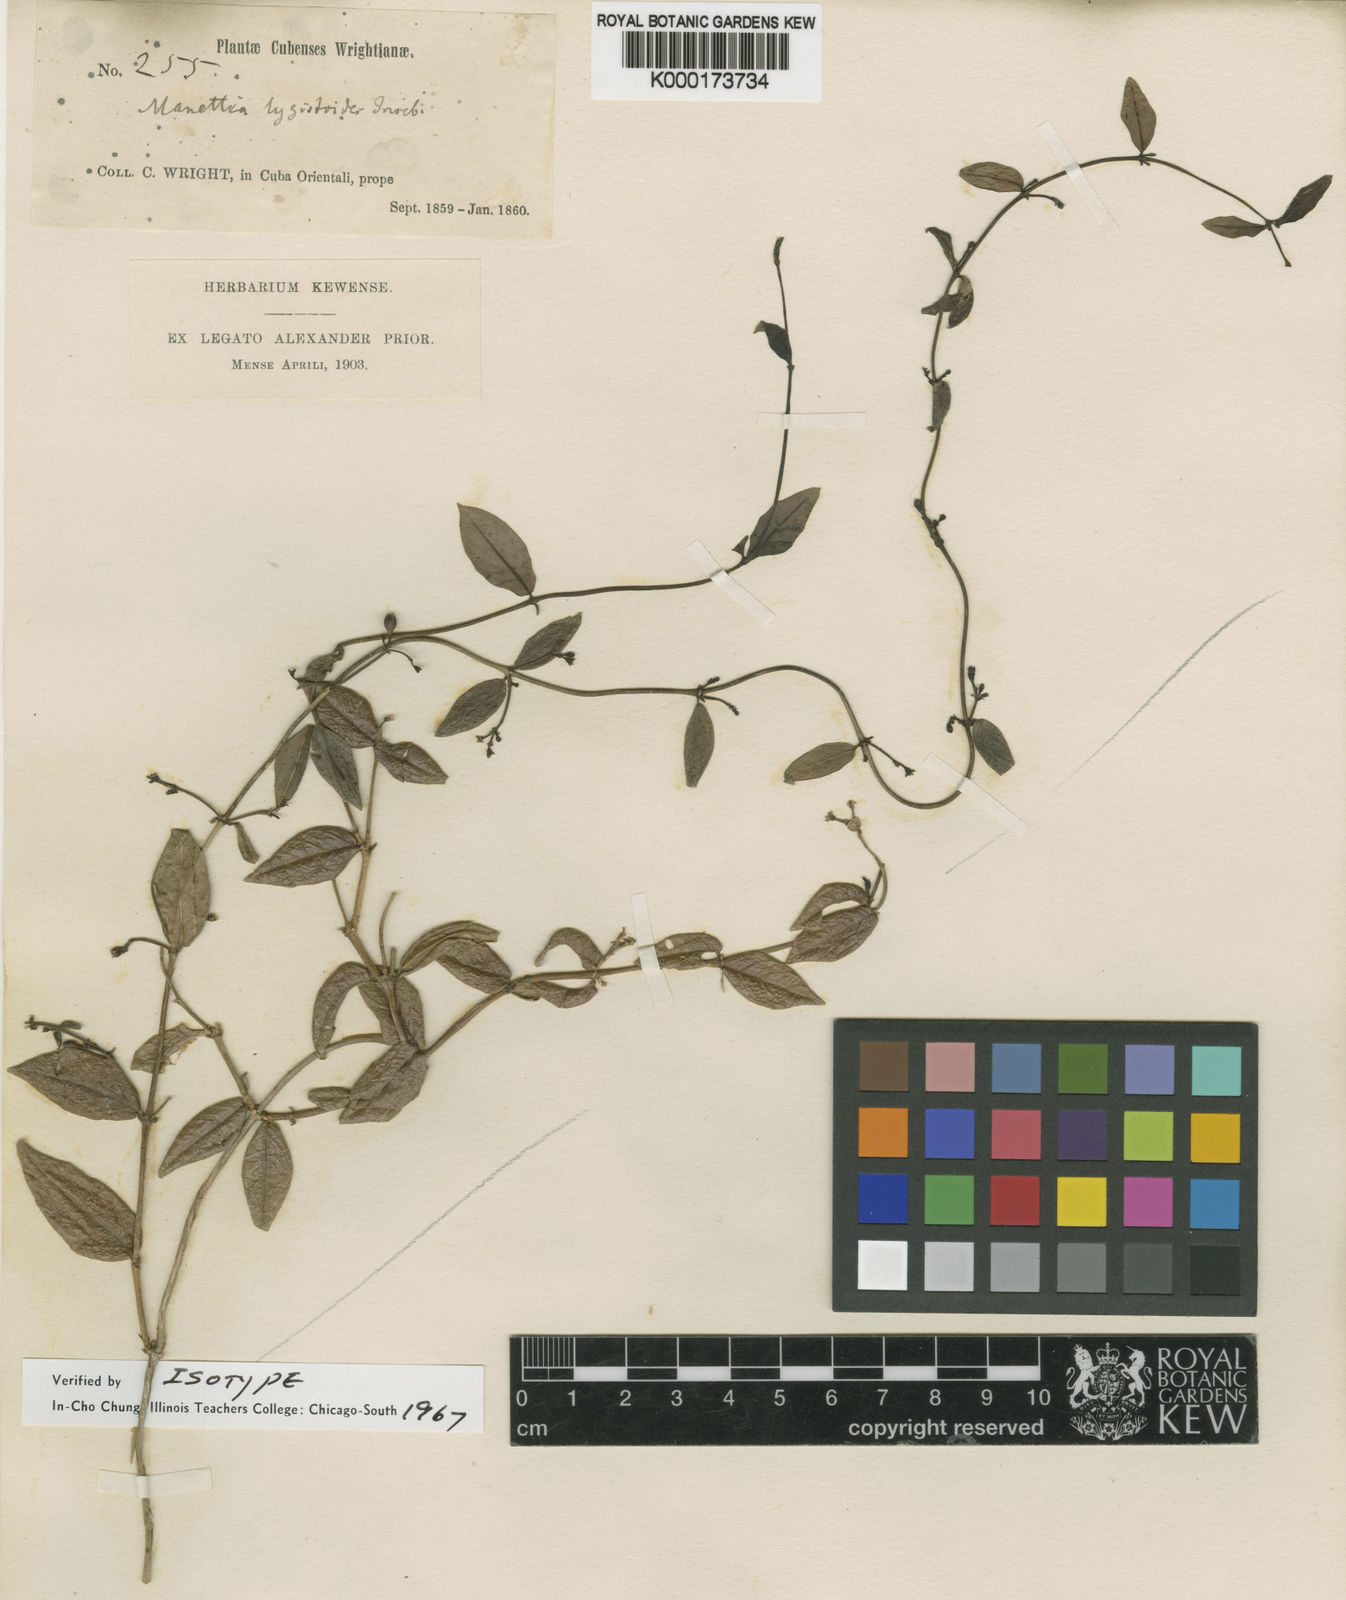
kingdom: Plantae
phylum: Tracheophyta
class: Magnoliopsida
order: Gentianales
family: Rubiaceae
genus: Manettia
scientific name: Manettia lygistum
